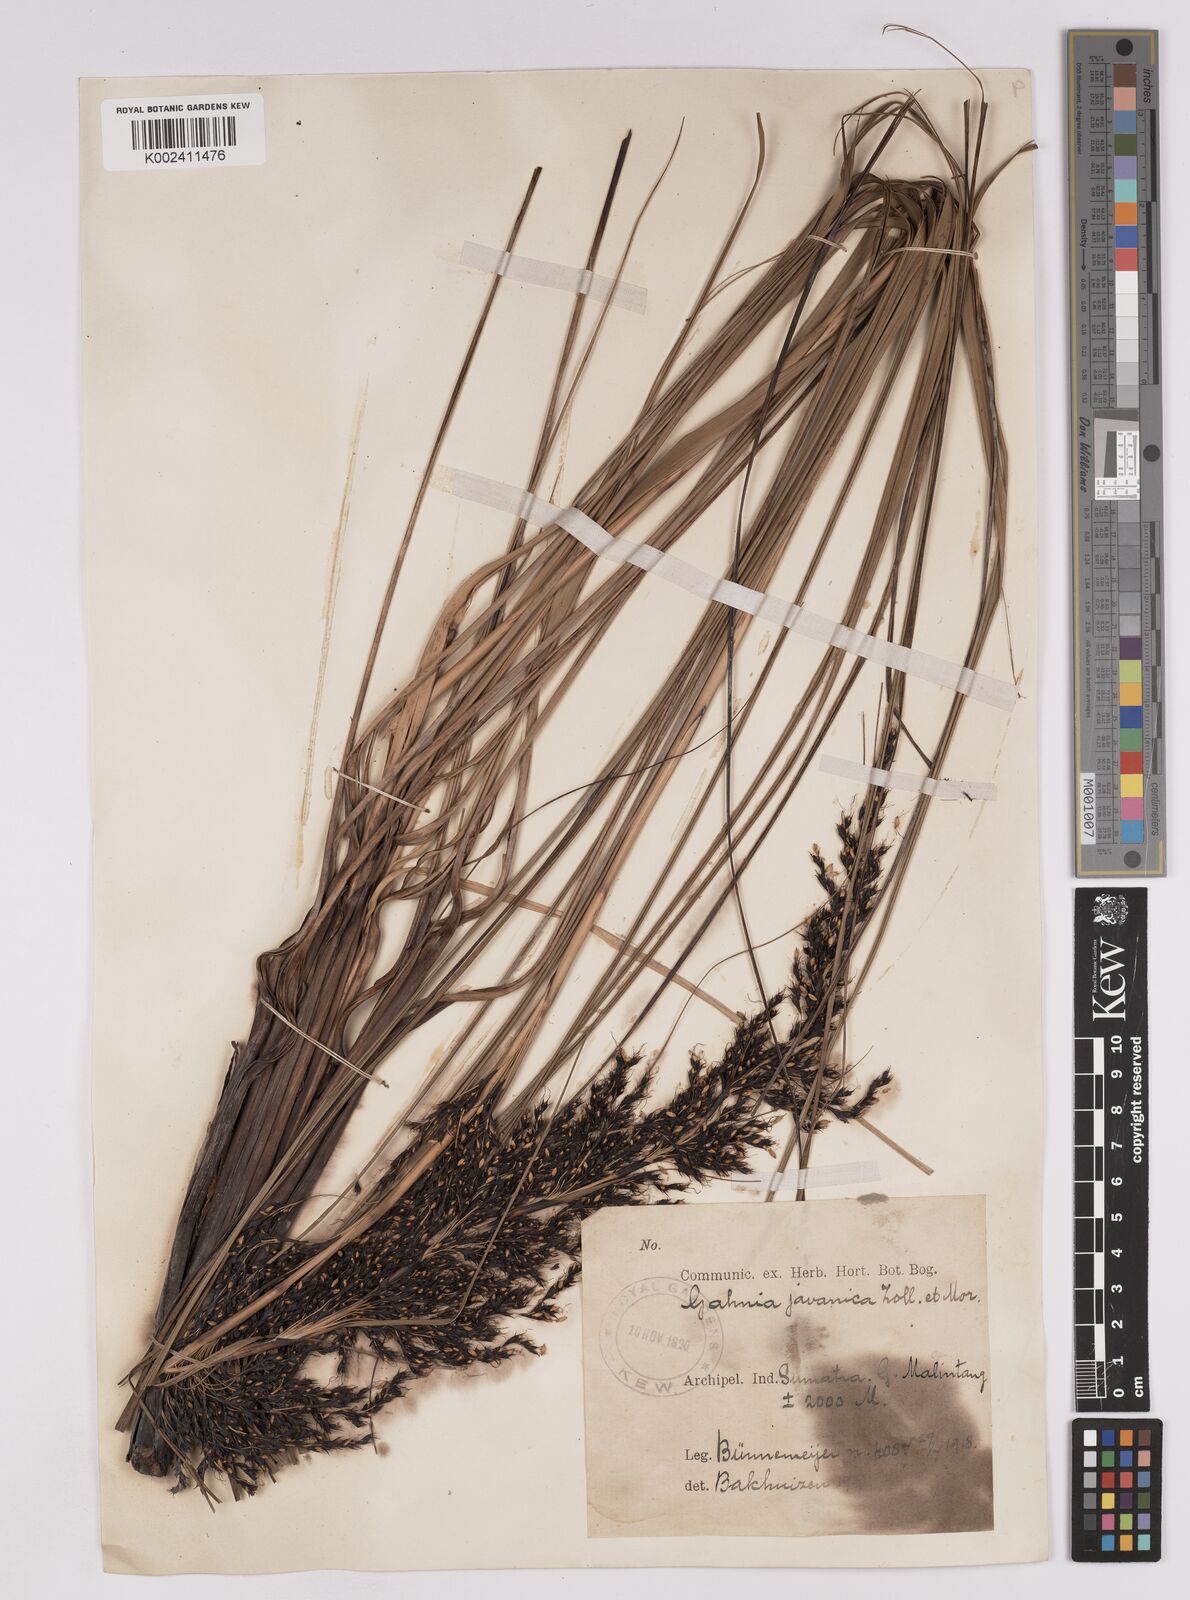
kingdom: Plantae
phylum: Tracheophyta
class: Liliopsida
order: Poales
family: Cyperaceae
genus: Gahnia
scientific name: Gahnia javanica
